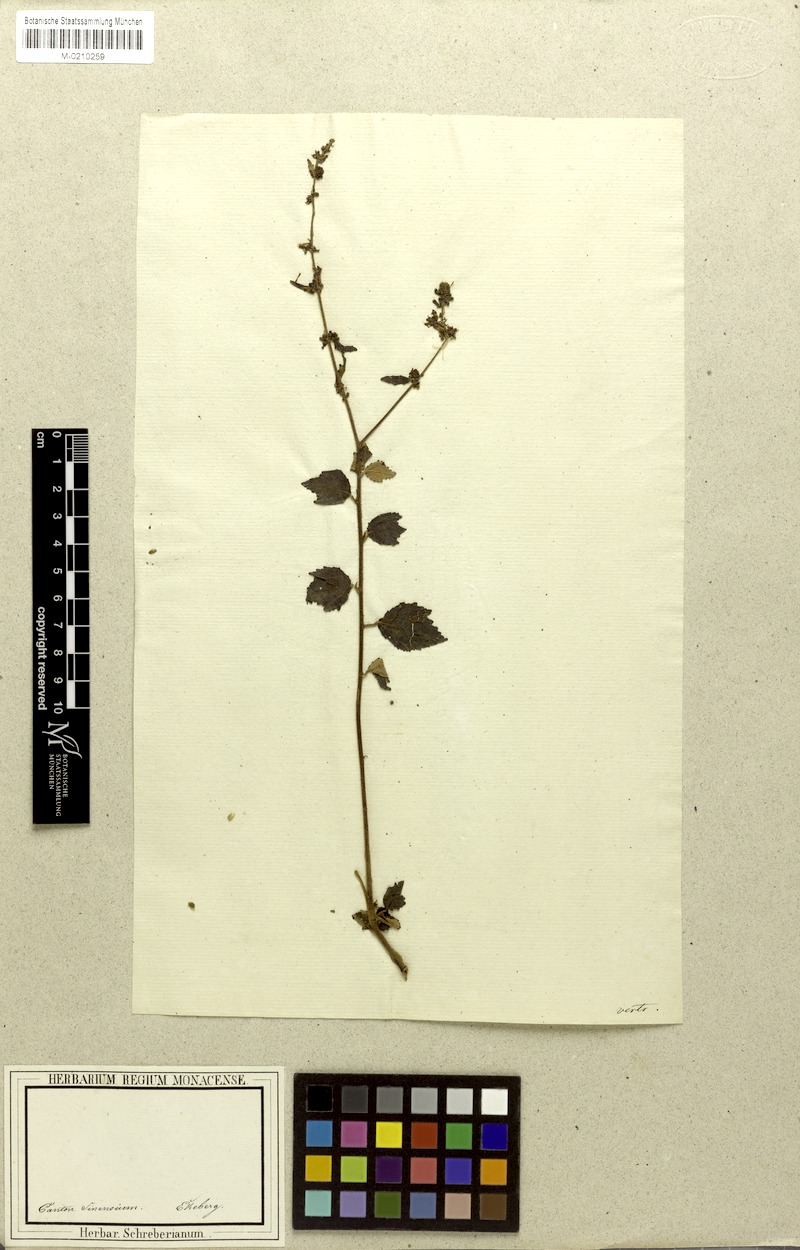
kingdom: Plantae
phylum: Tracheophyta
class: Magnoliopsida
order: Malvales
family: Malvaceae
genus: Triumfetta
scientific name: Triumfetta rhomboidea
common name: Diamond burbark
